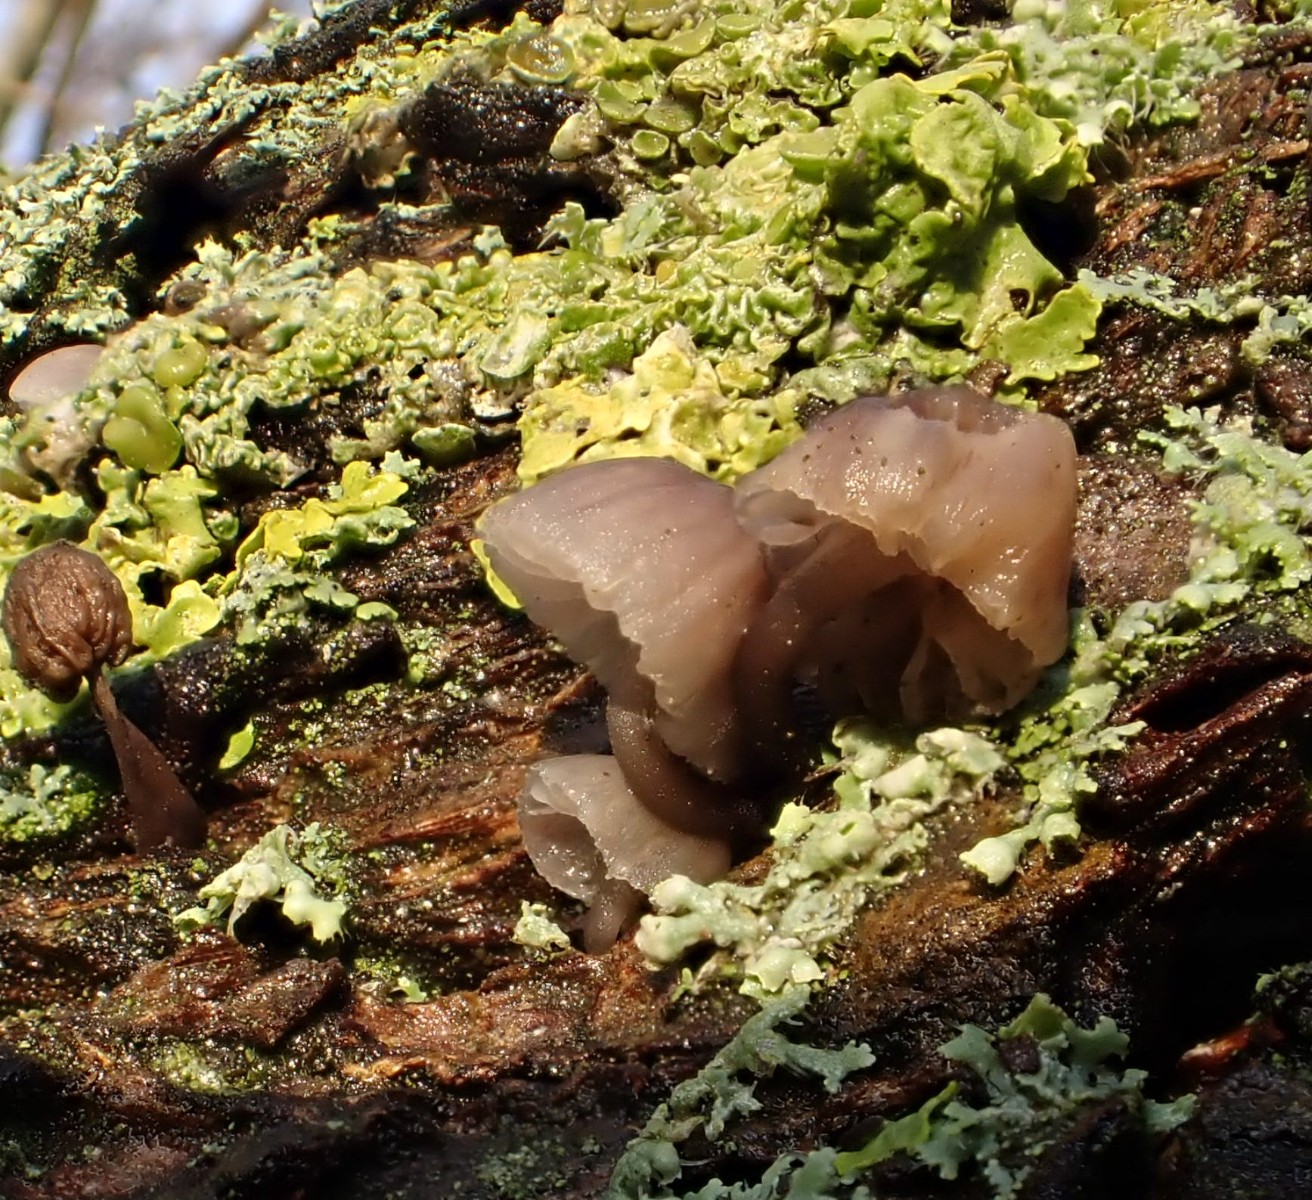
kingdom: Fungi
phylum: Basidiomycota
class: Agaricomycetes
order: Agaricales
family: Mycenaceae
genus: Mycena
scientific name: Mycena
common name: huesvamp
